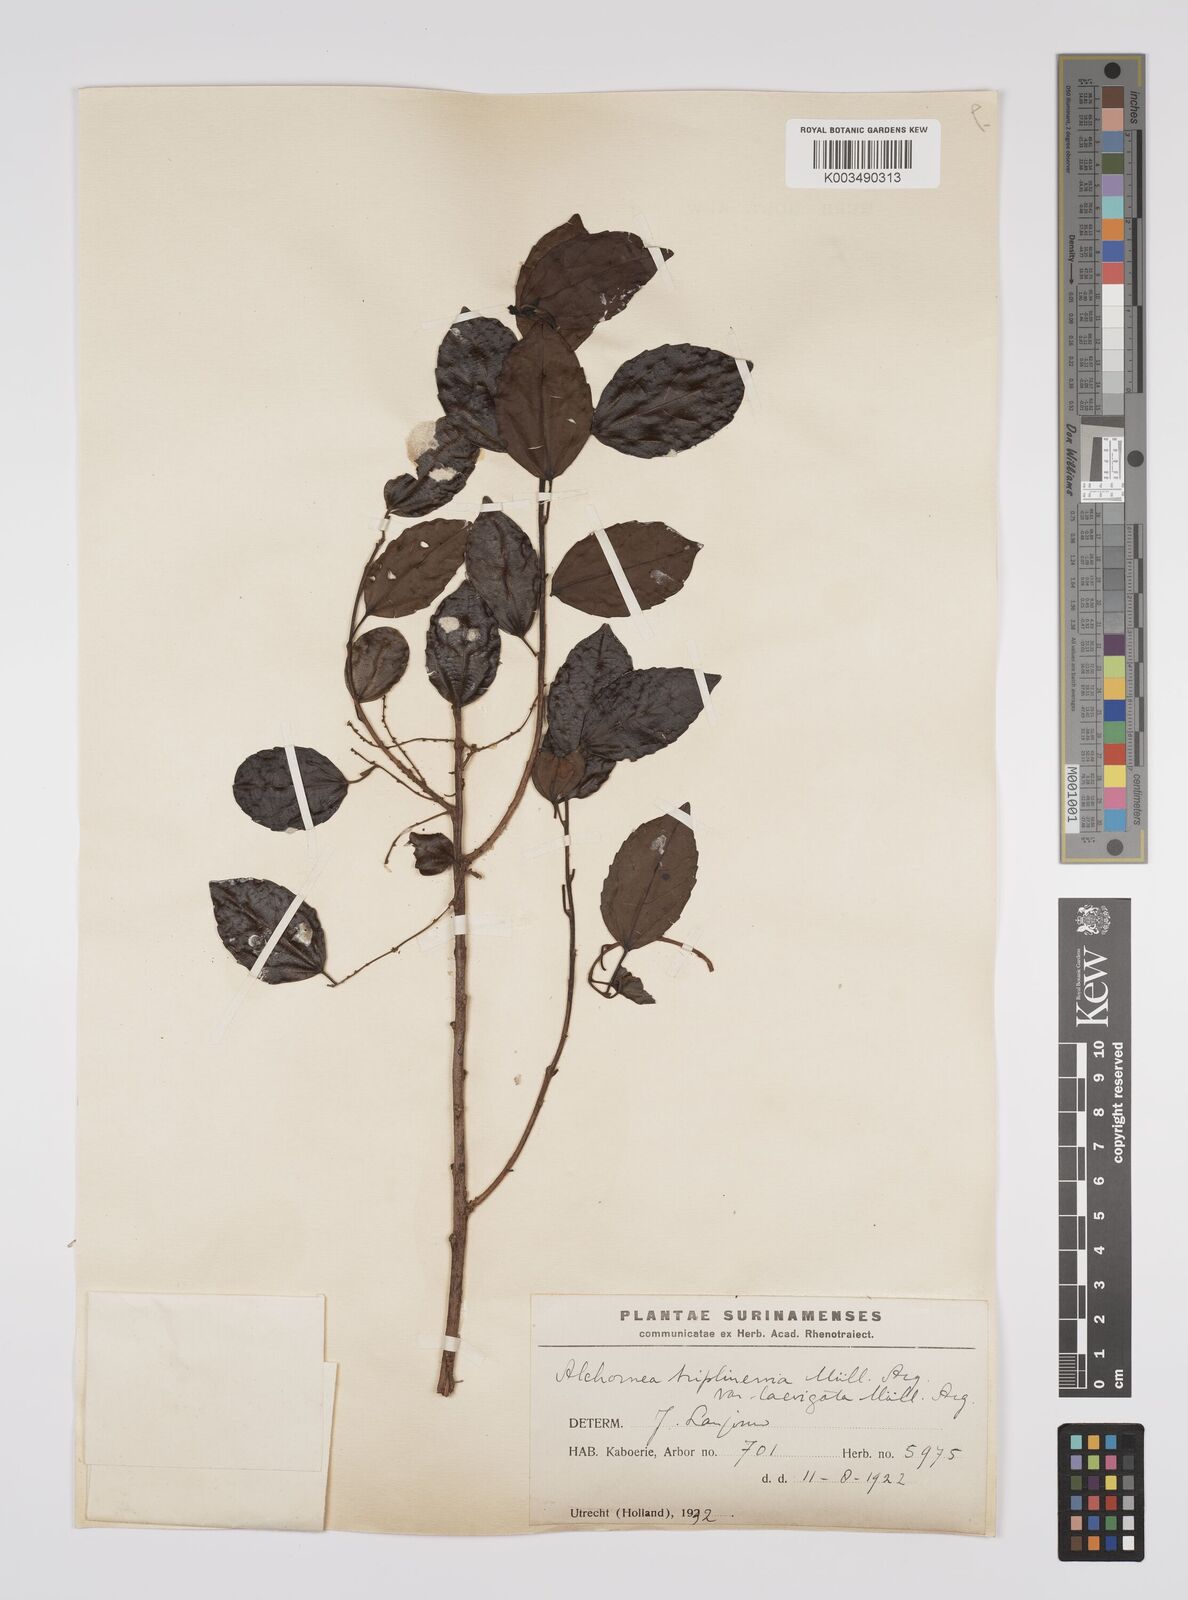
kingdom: Plantae
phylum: Tracheophyta
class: Magnoliopsida
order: Malpighiales
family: Euphorbiaceae
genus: Alchornea
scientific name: Alchornea triplinervia
